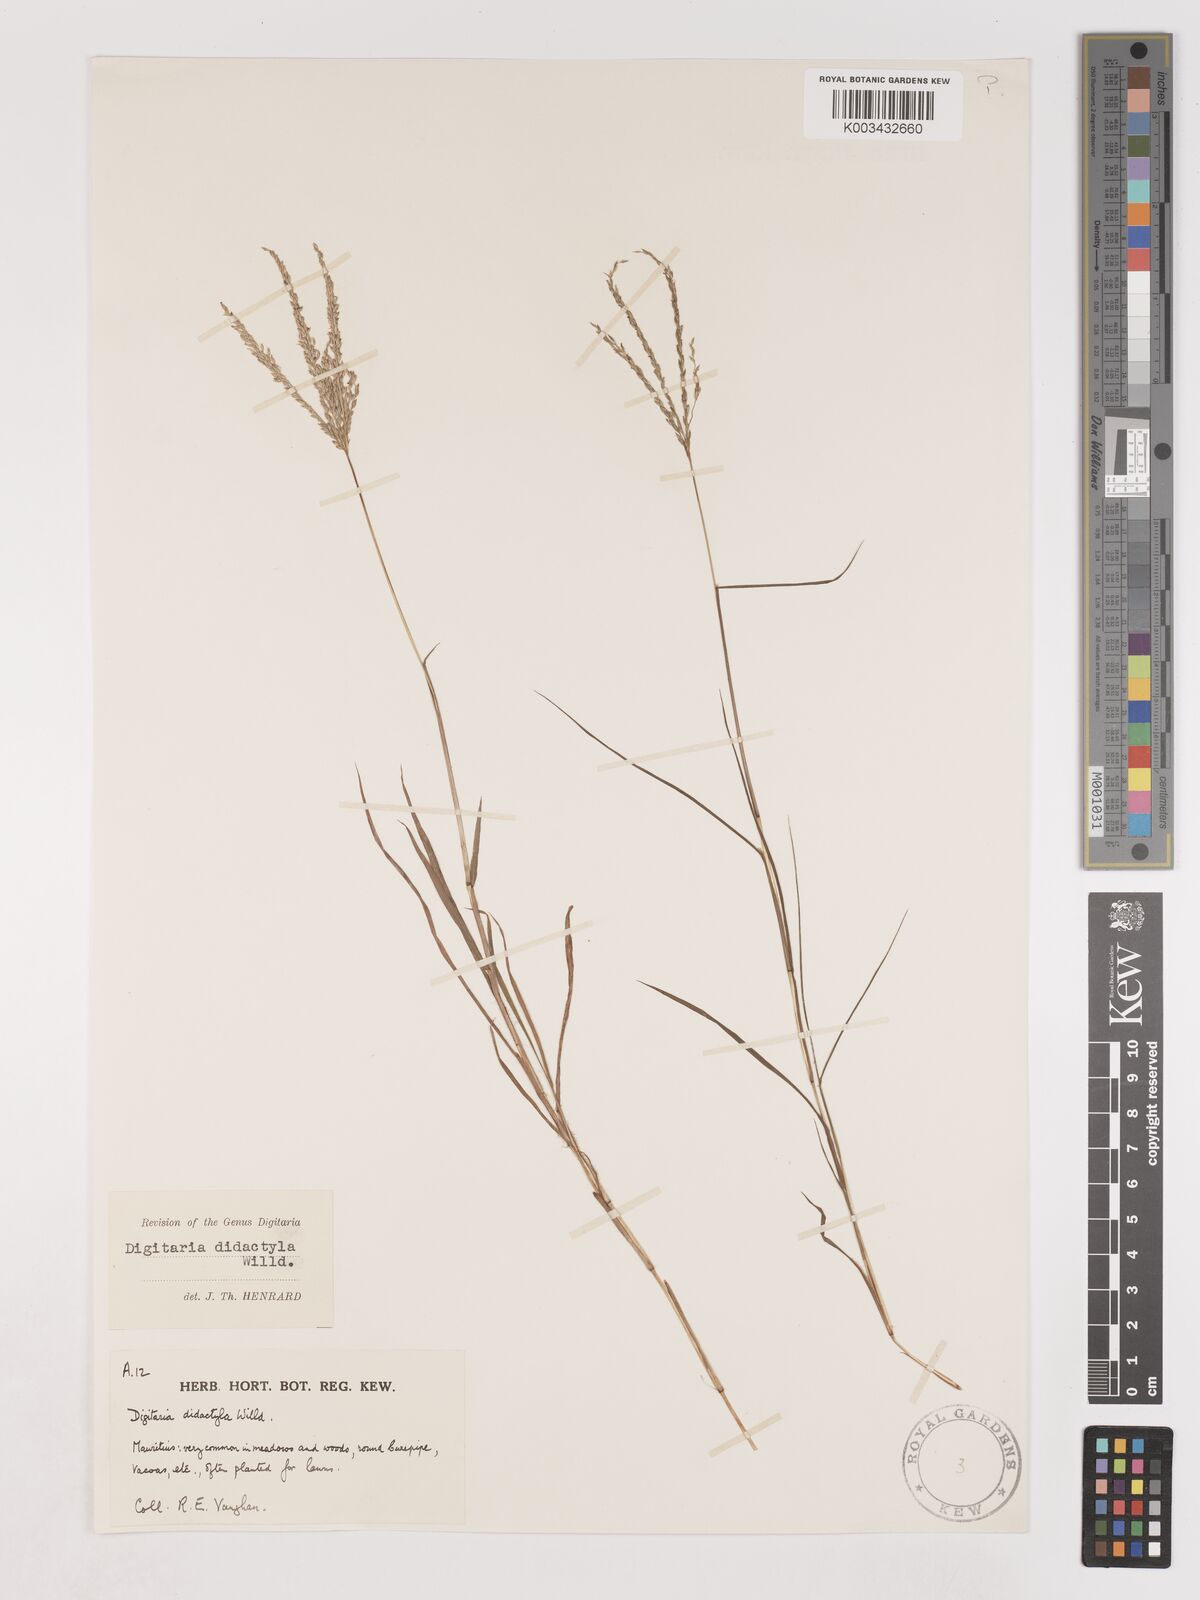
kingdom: Plantae
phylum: Tracheophyta
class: Liliopsida
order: Poales
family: Poaceae
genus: Digitaria
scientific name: Digitaria didactyla
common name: Blue couch
